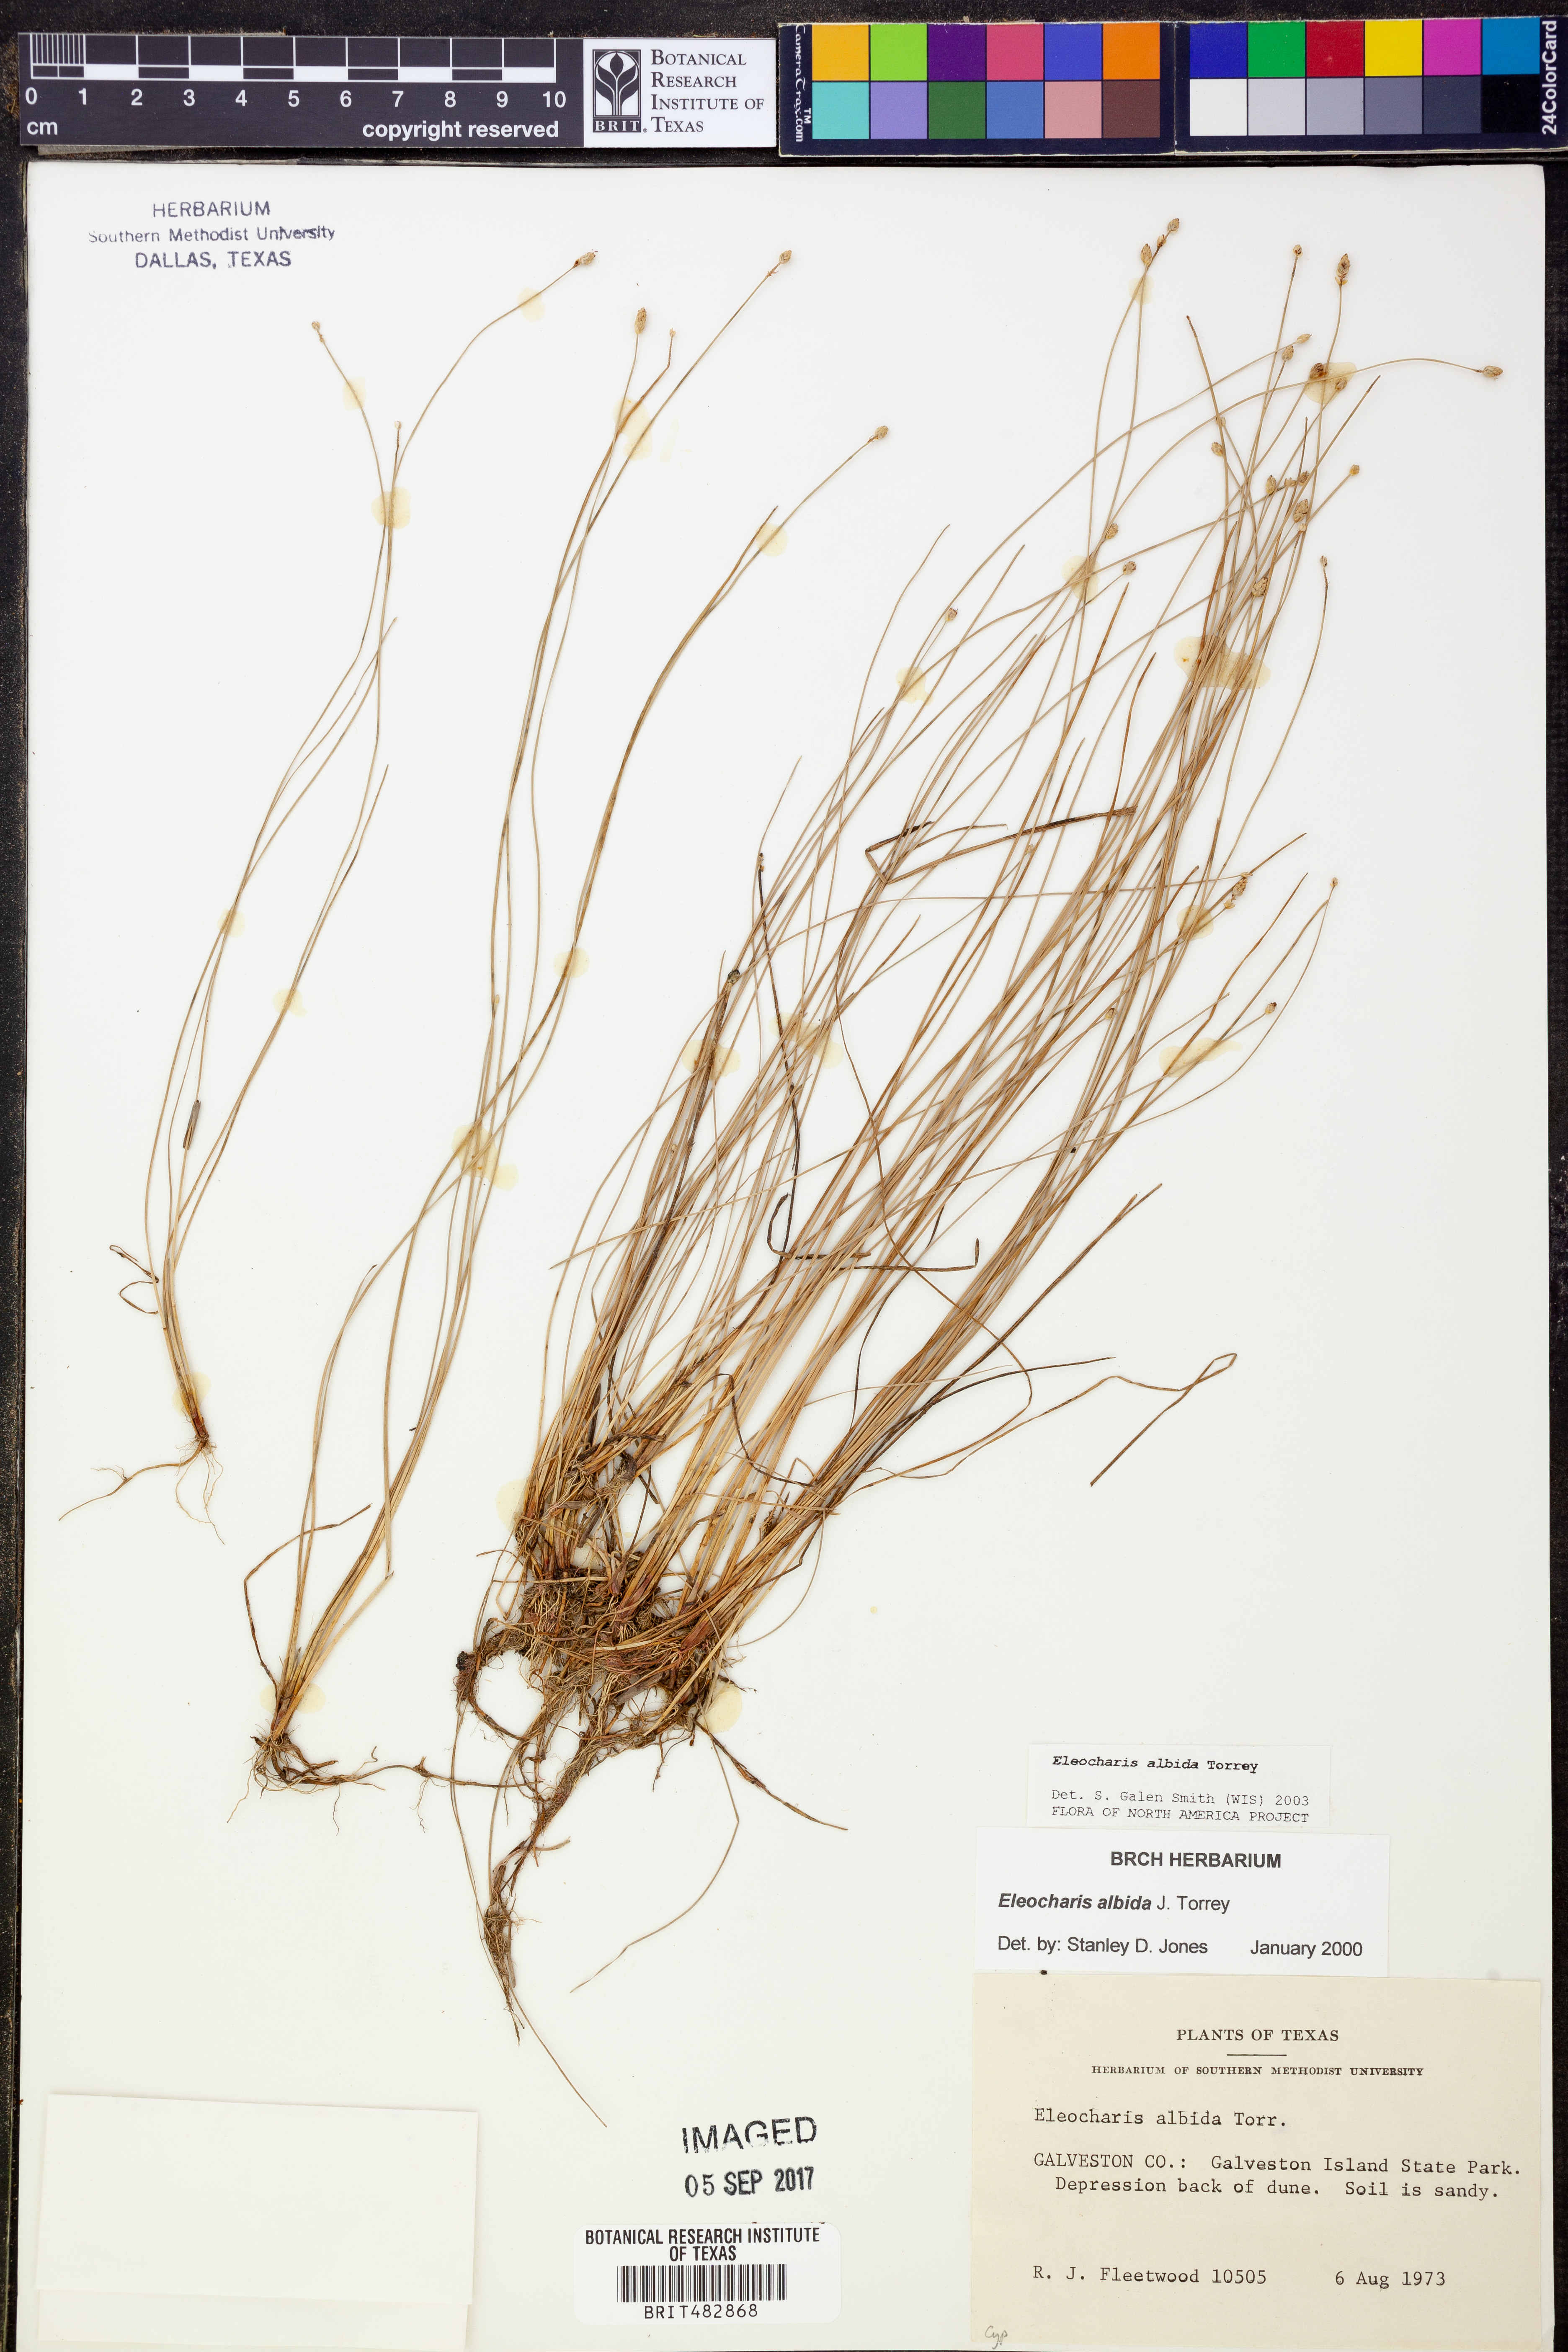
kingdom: Plantae
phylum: Tracheophyta
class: Liliopsida
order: Poales
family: Cyperaceae
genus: Eleocharis
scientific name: Eleocharis albida
